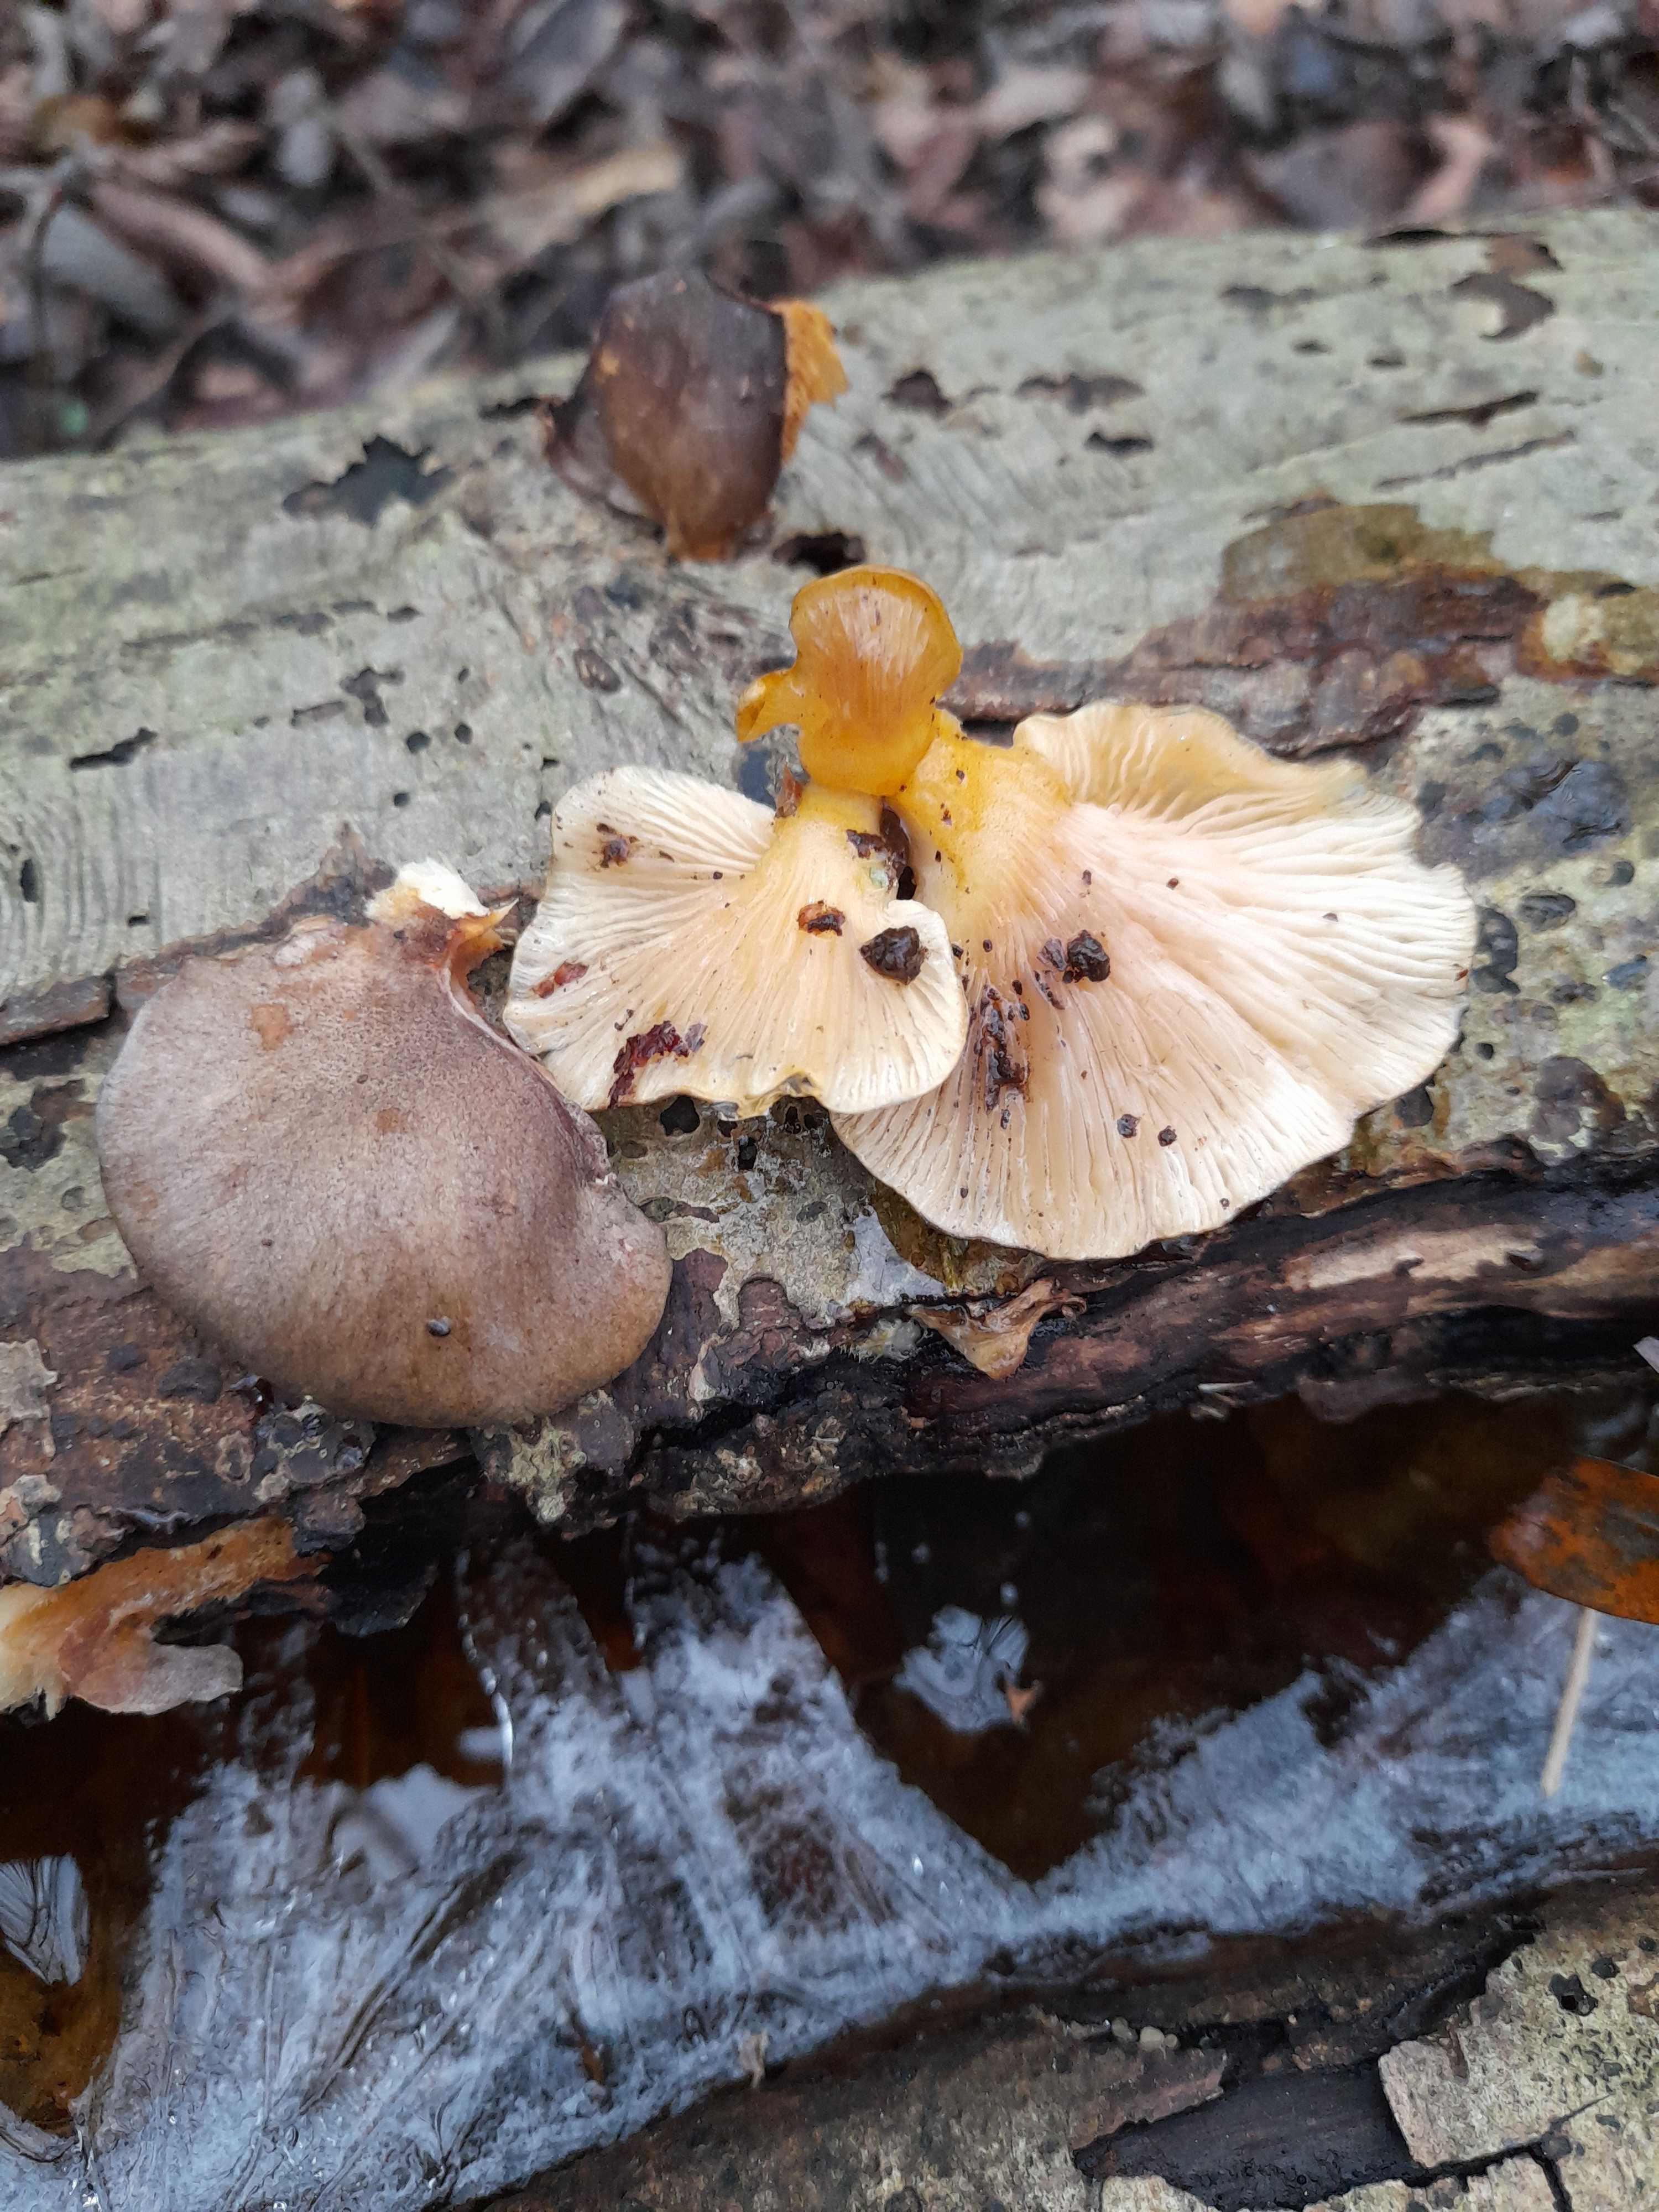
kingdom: Fungi
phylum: Basidiomycota
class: Agaricomycetes
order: Agaricales
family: Sarcomyxaceae
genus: Sarcomyxa
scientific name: Sarcomyxa serotina
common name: gummihat
